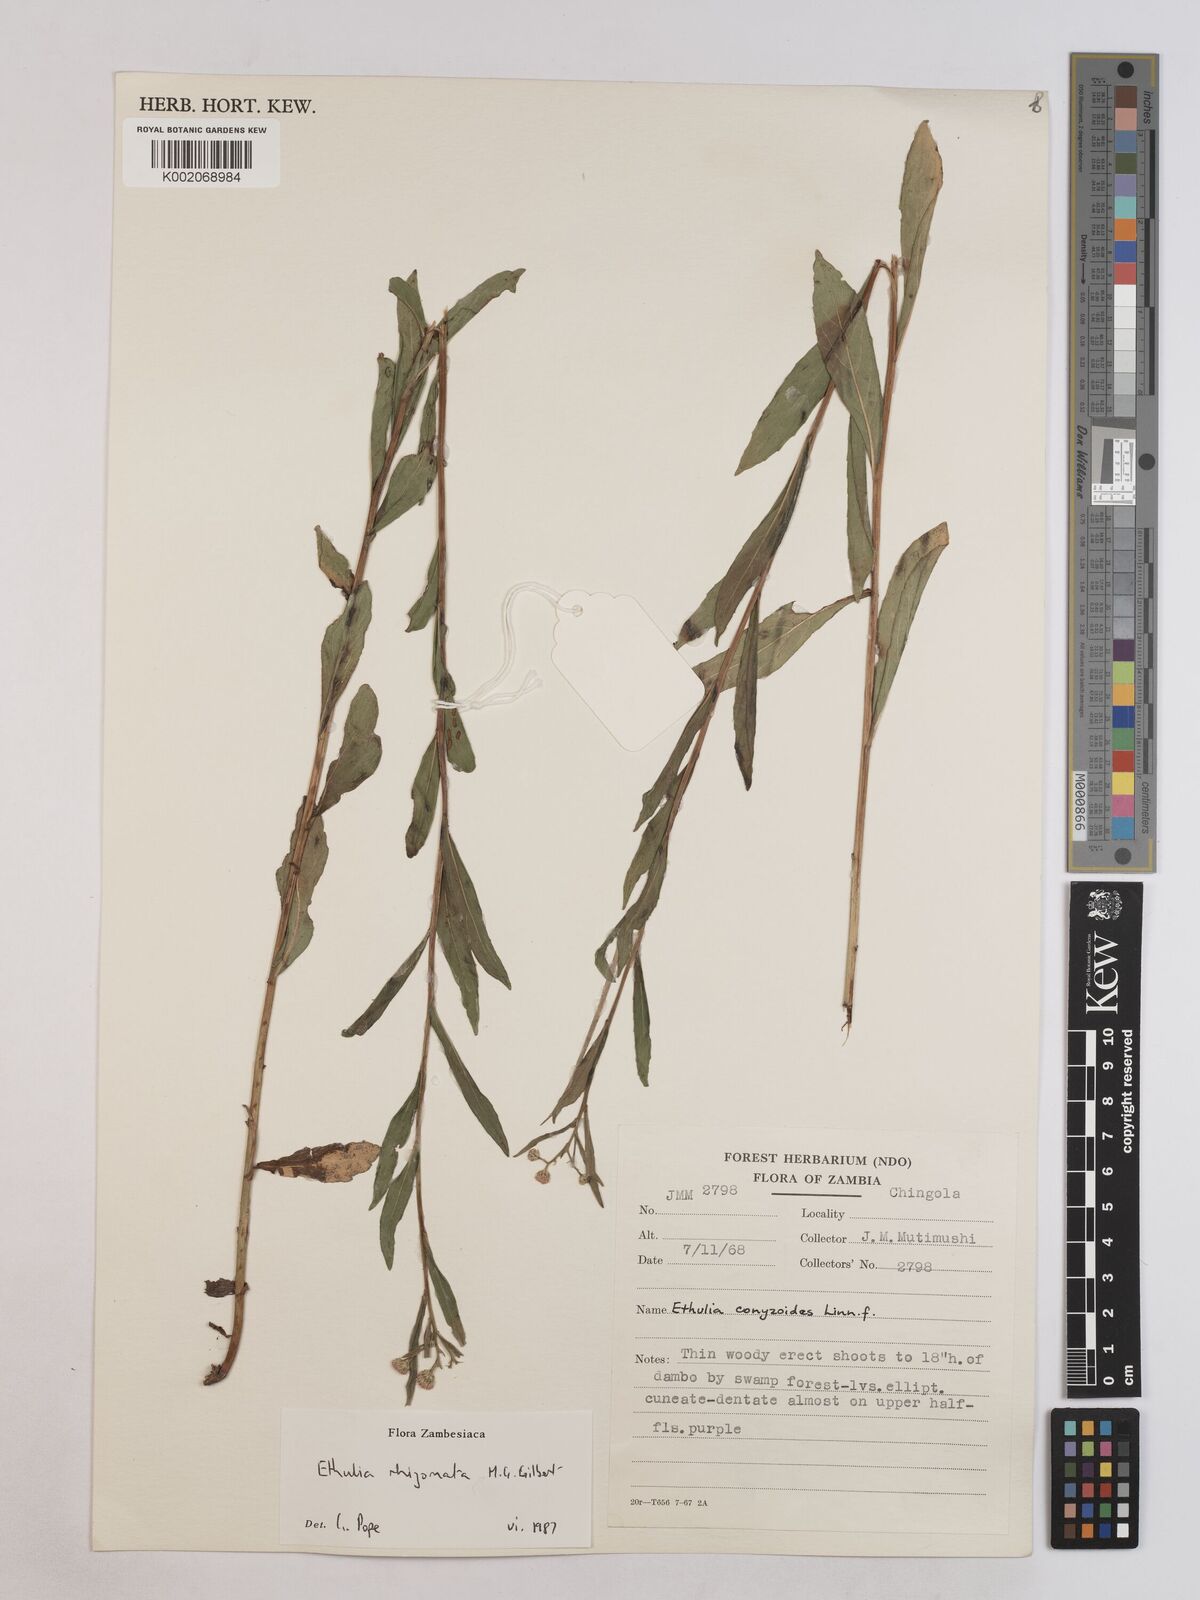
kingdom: Plantae
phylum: Tracheophyta
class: Magnoliopsida
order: Asterales
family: Asteraceae
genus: Ethulia
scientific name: Ethulia rhizomata
